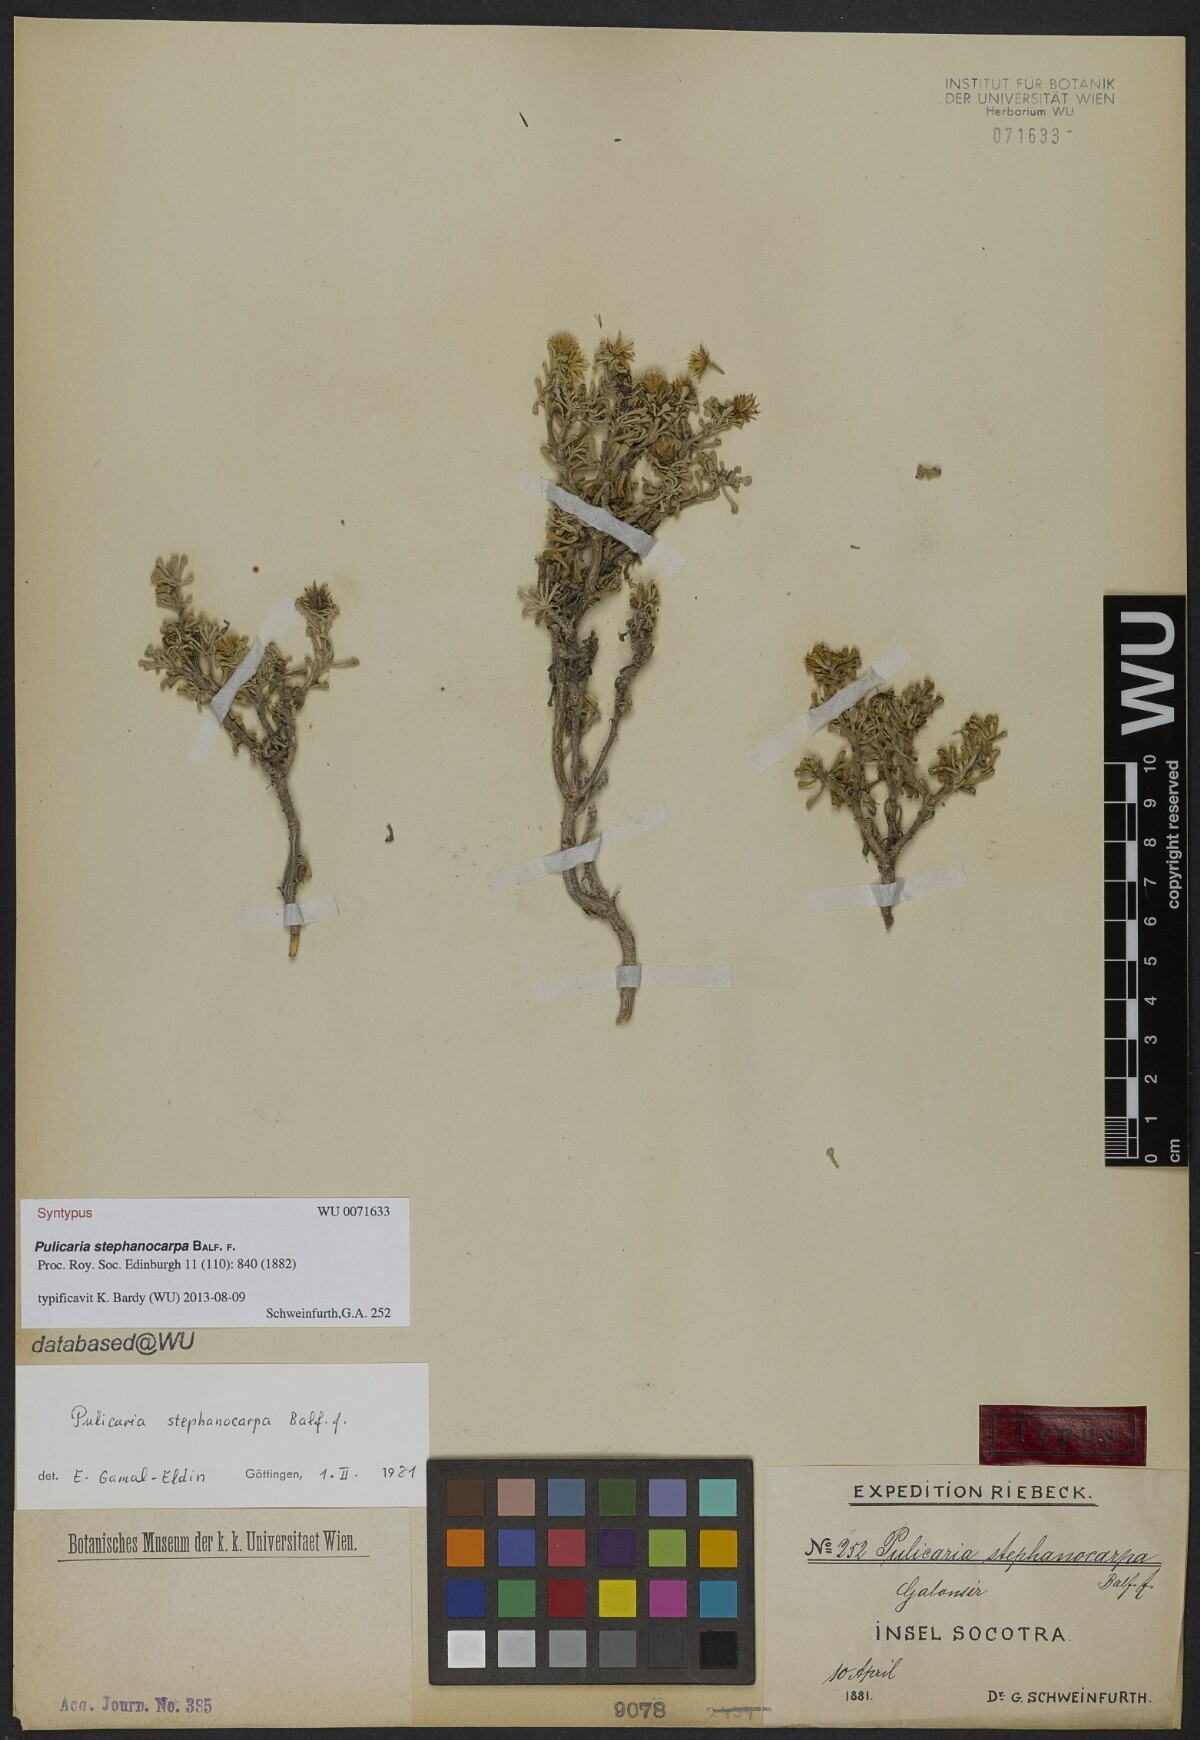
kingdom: Plantae
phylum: Tracheophyta
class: Magnoliopsida
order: Asterales
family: Asteraceae
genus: Pulicaria
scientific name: Pulicaria stephanocarpa
